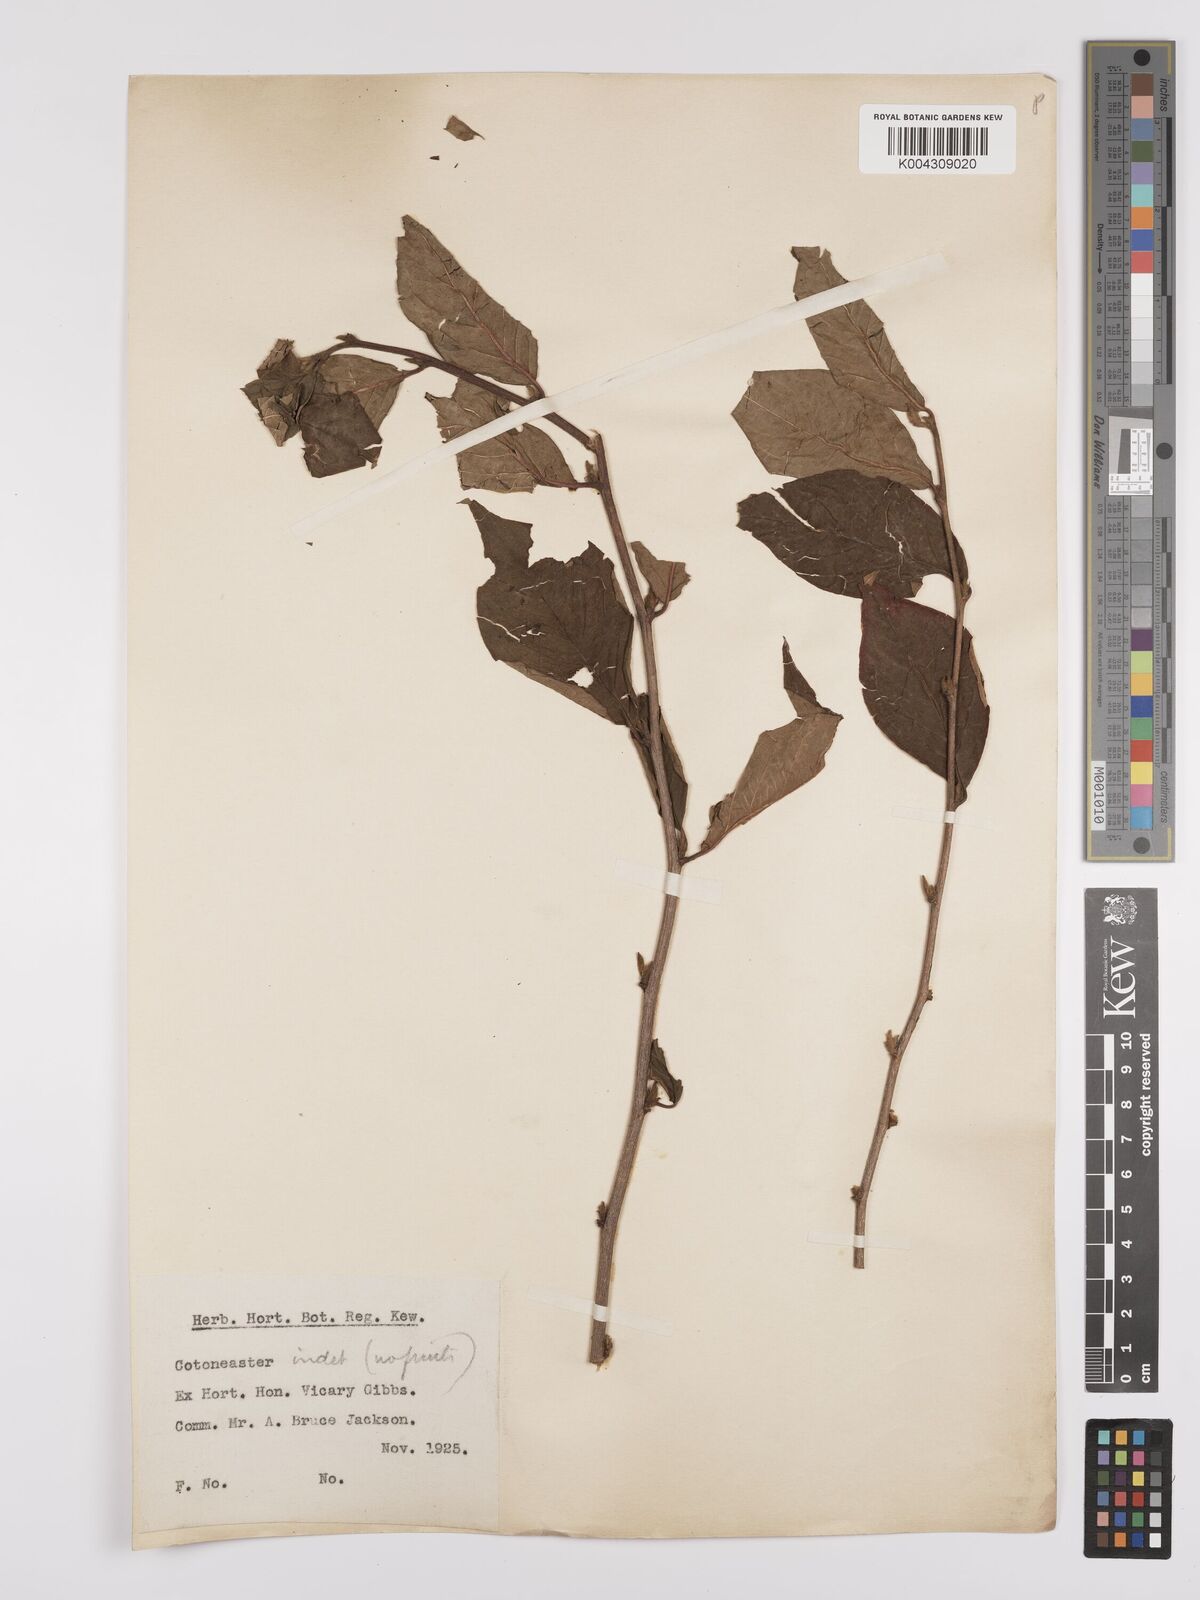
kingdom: Plantae
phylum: Tracheophyta
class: Magnoliopsida
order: Rosales
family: Rosaceae
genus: Cotoneaster
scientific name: Cotoneaster
